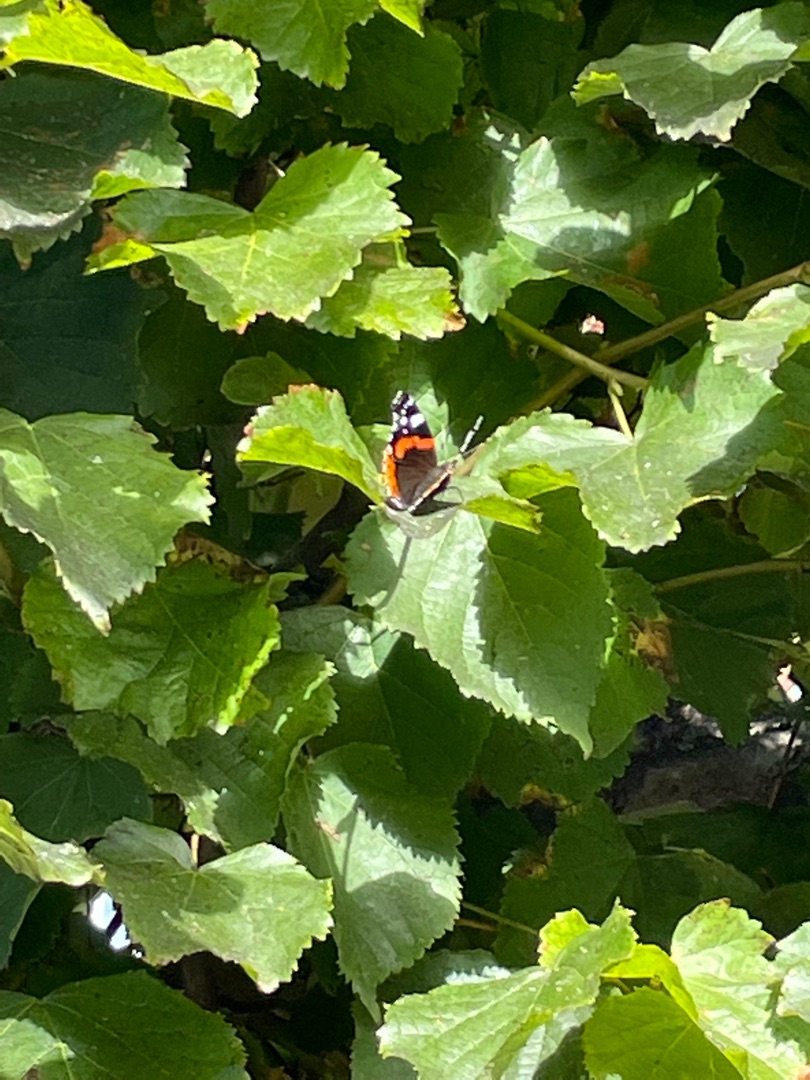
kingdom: Animalia
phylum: Arthropoda
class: Insecta
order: Lepidoptera
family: Nymphalidae
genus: Vanessa
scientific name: Vanessa atalanta
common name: Admiral
